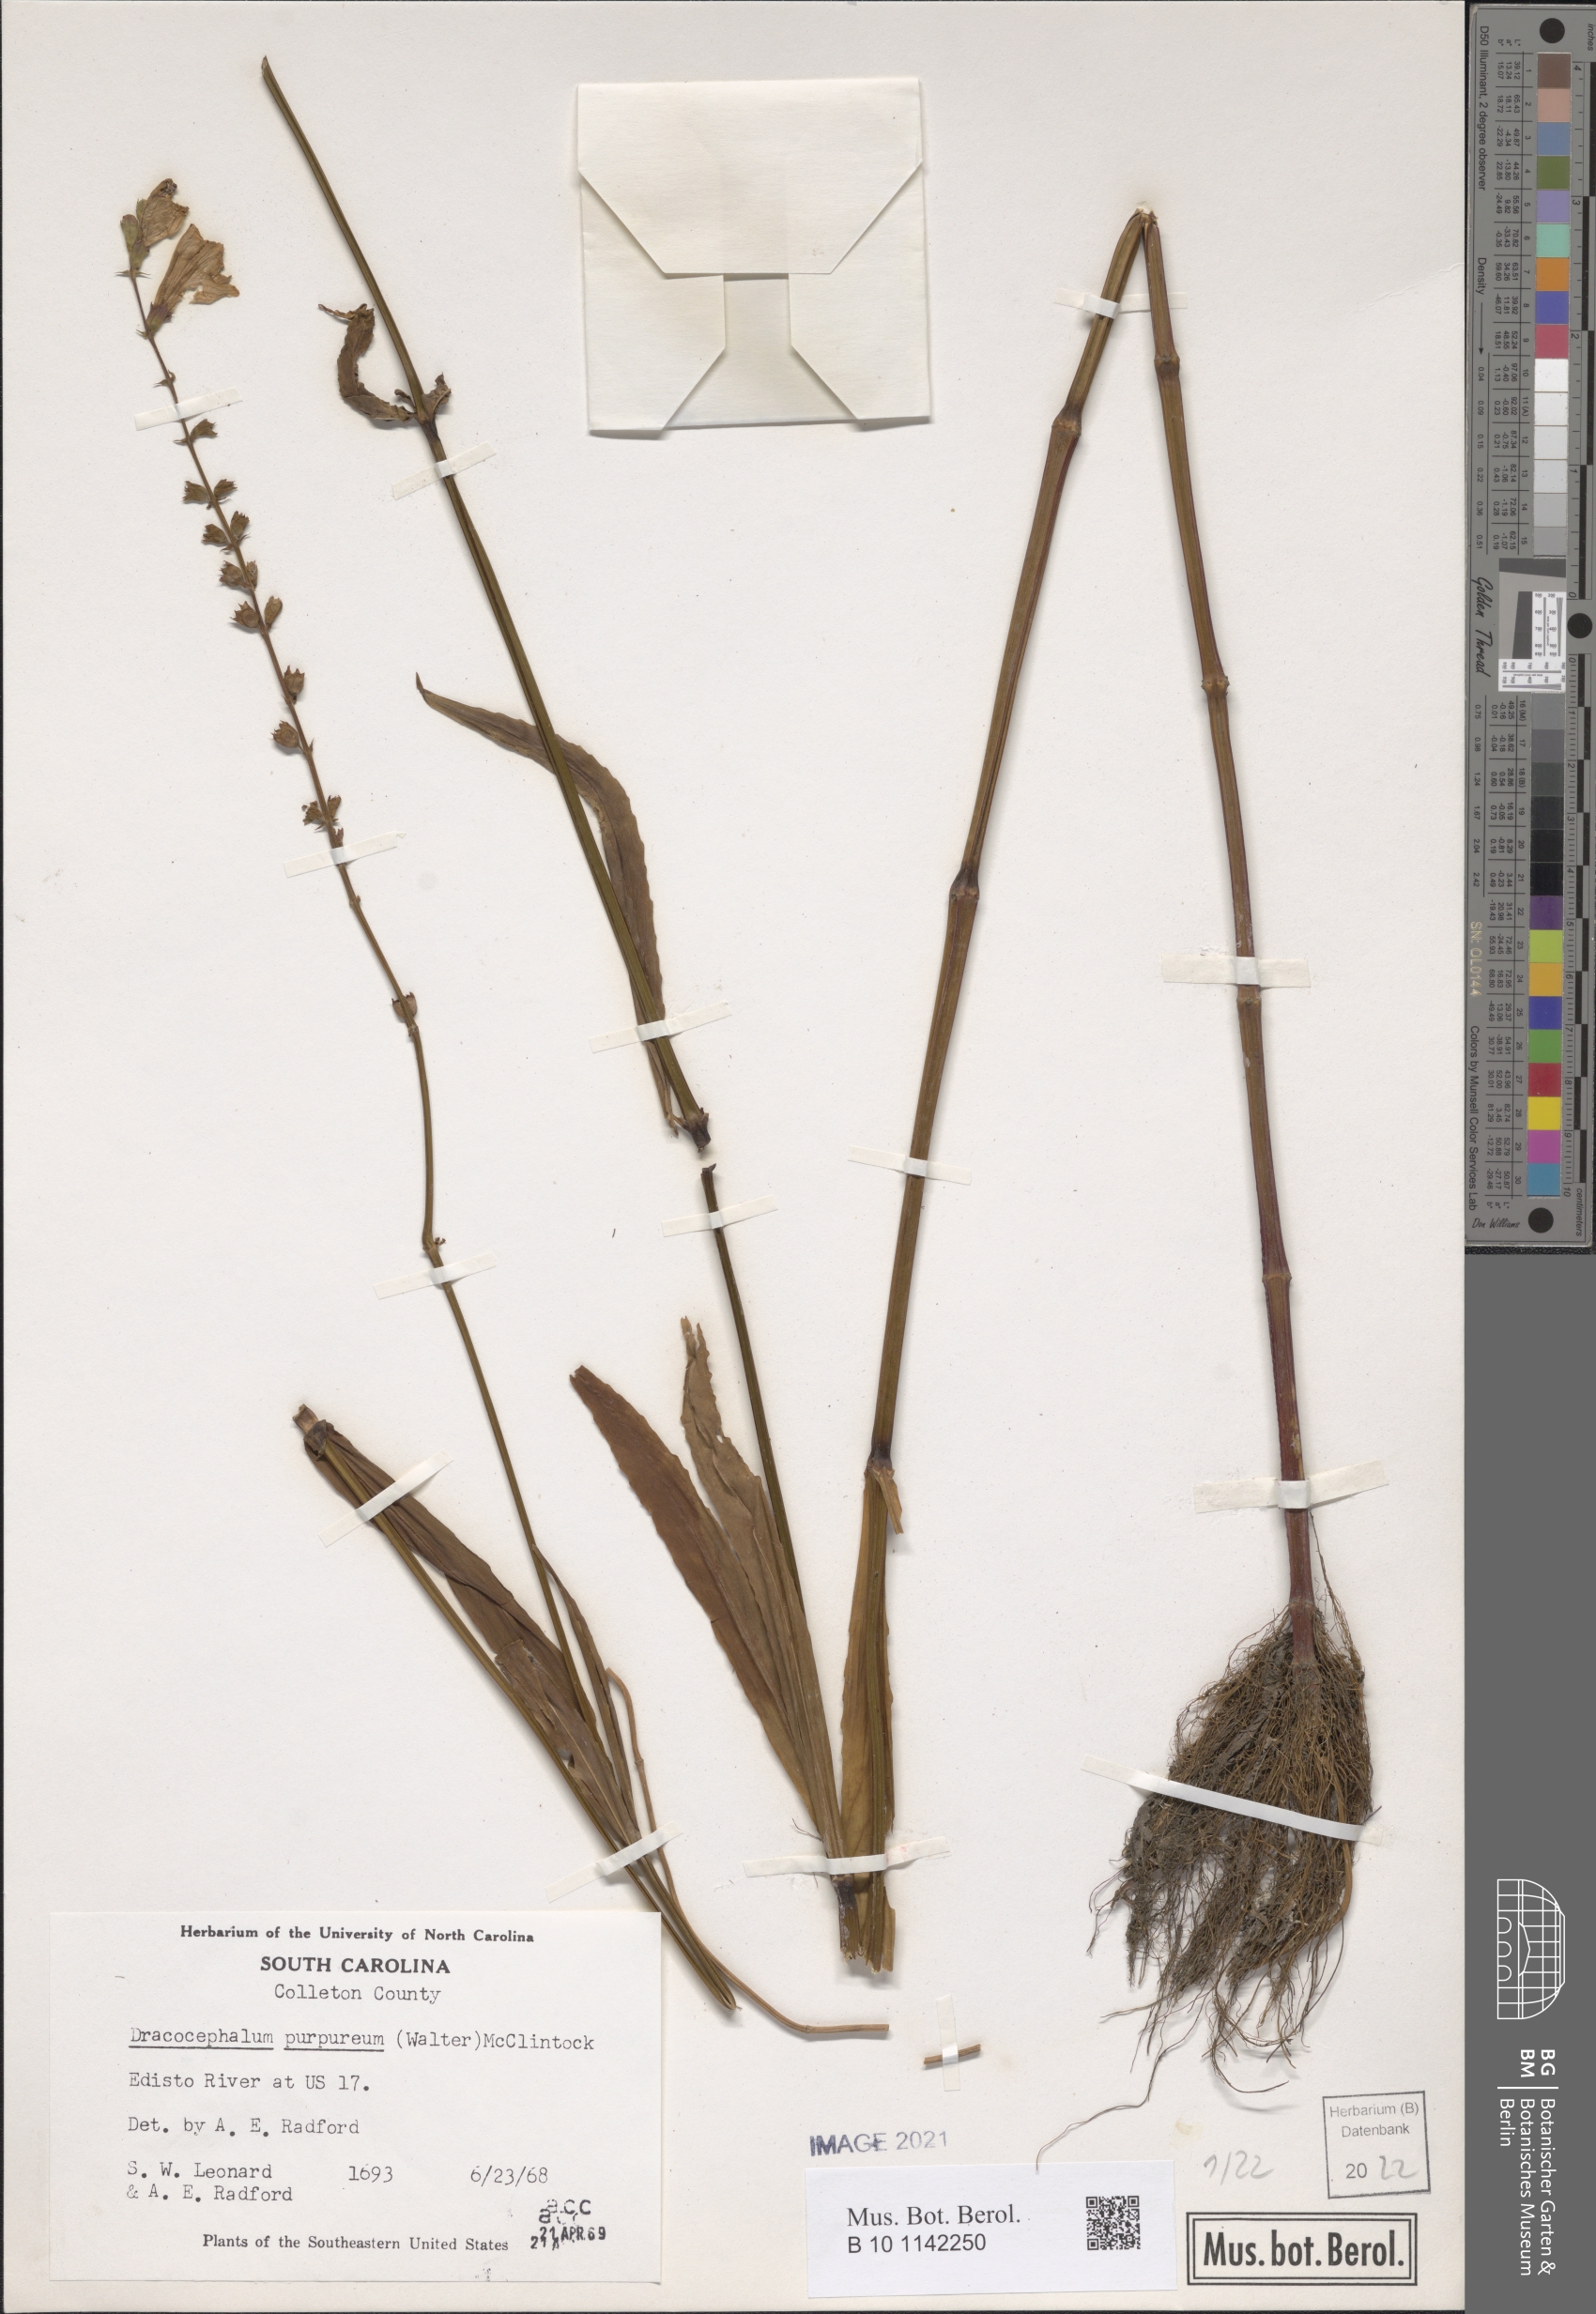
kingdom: Plantae
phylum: Tracheophyta
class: Magnoliopsida
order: Lamiales
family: Lamiaceae
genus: Physostegia
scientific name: Physostegia purpurea
